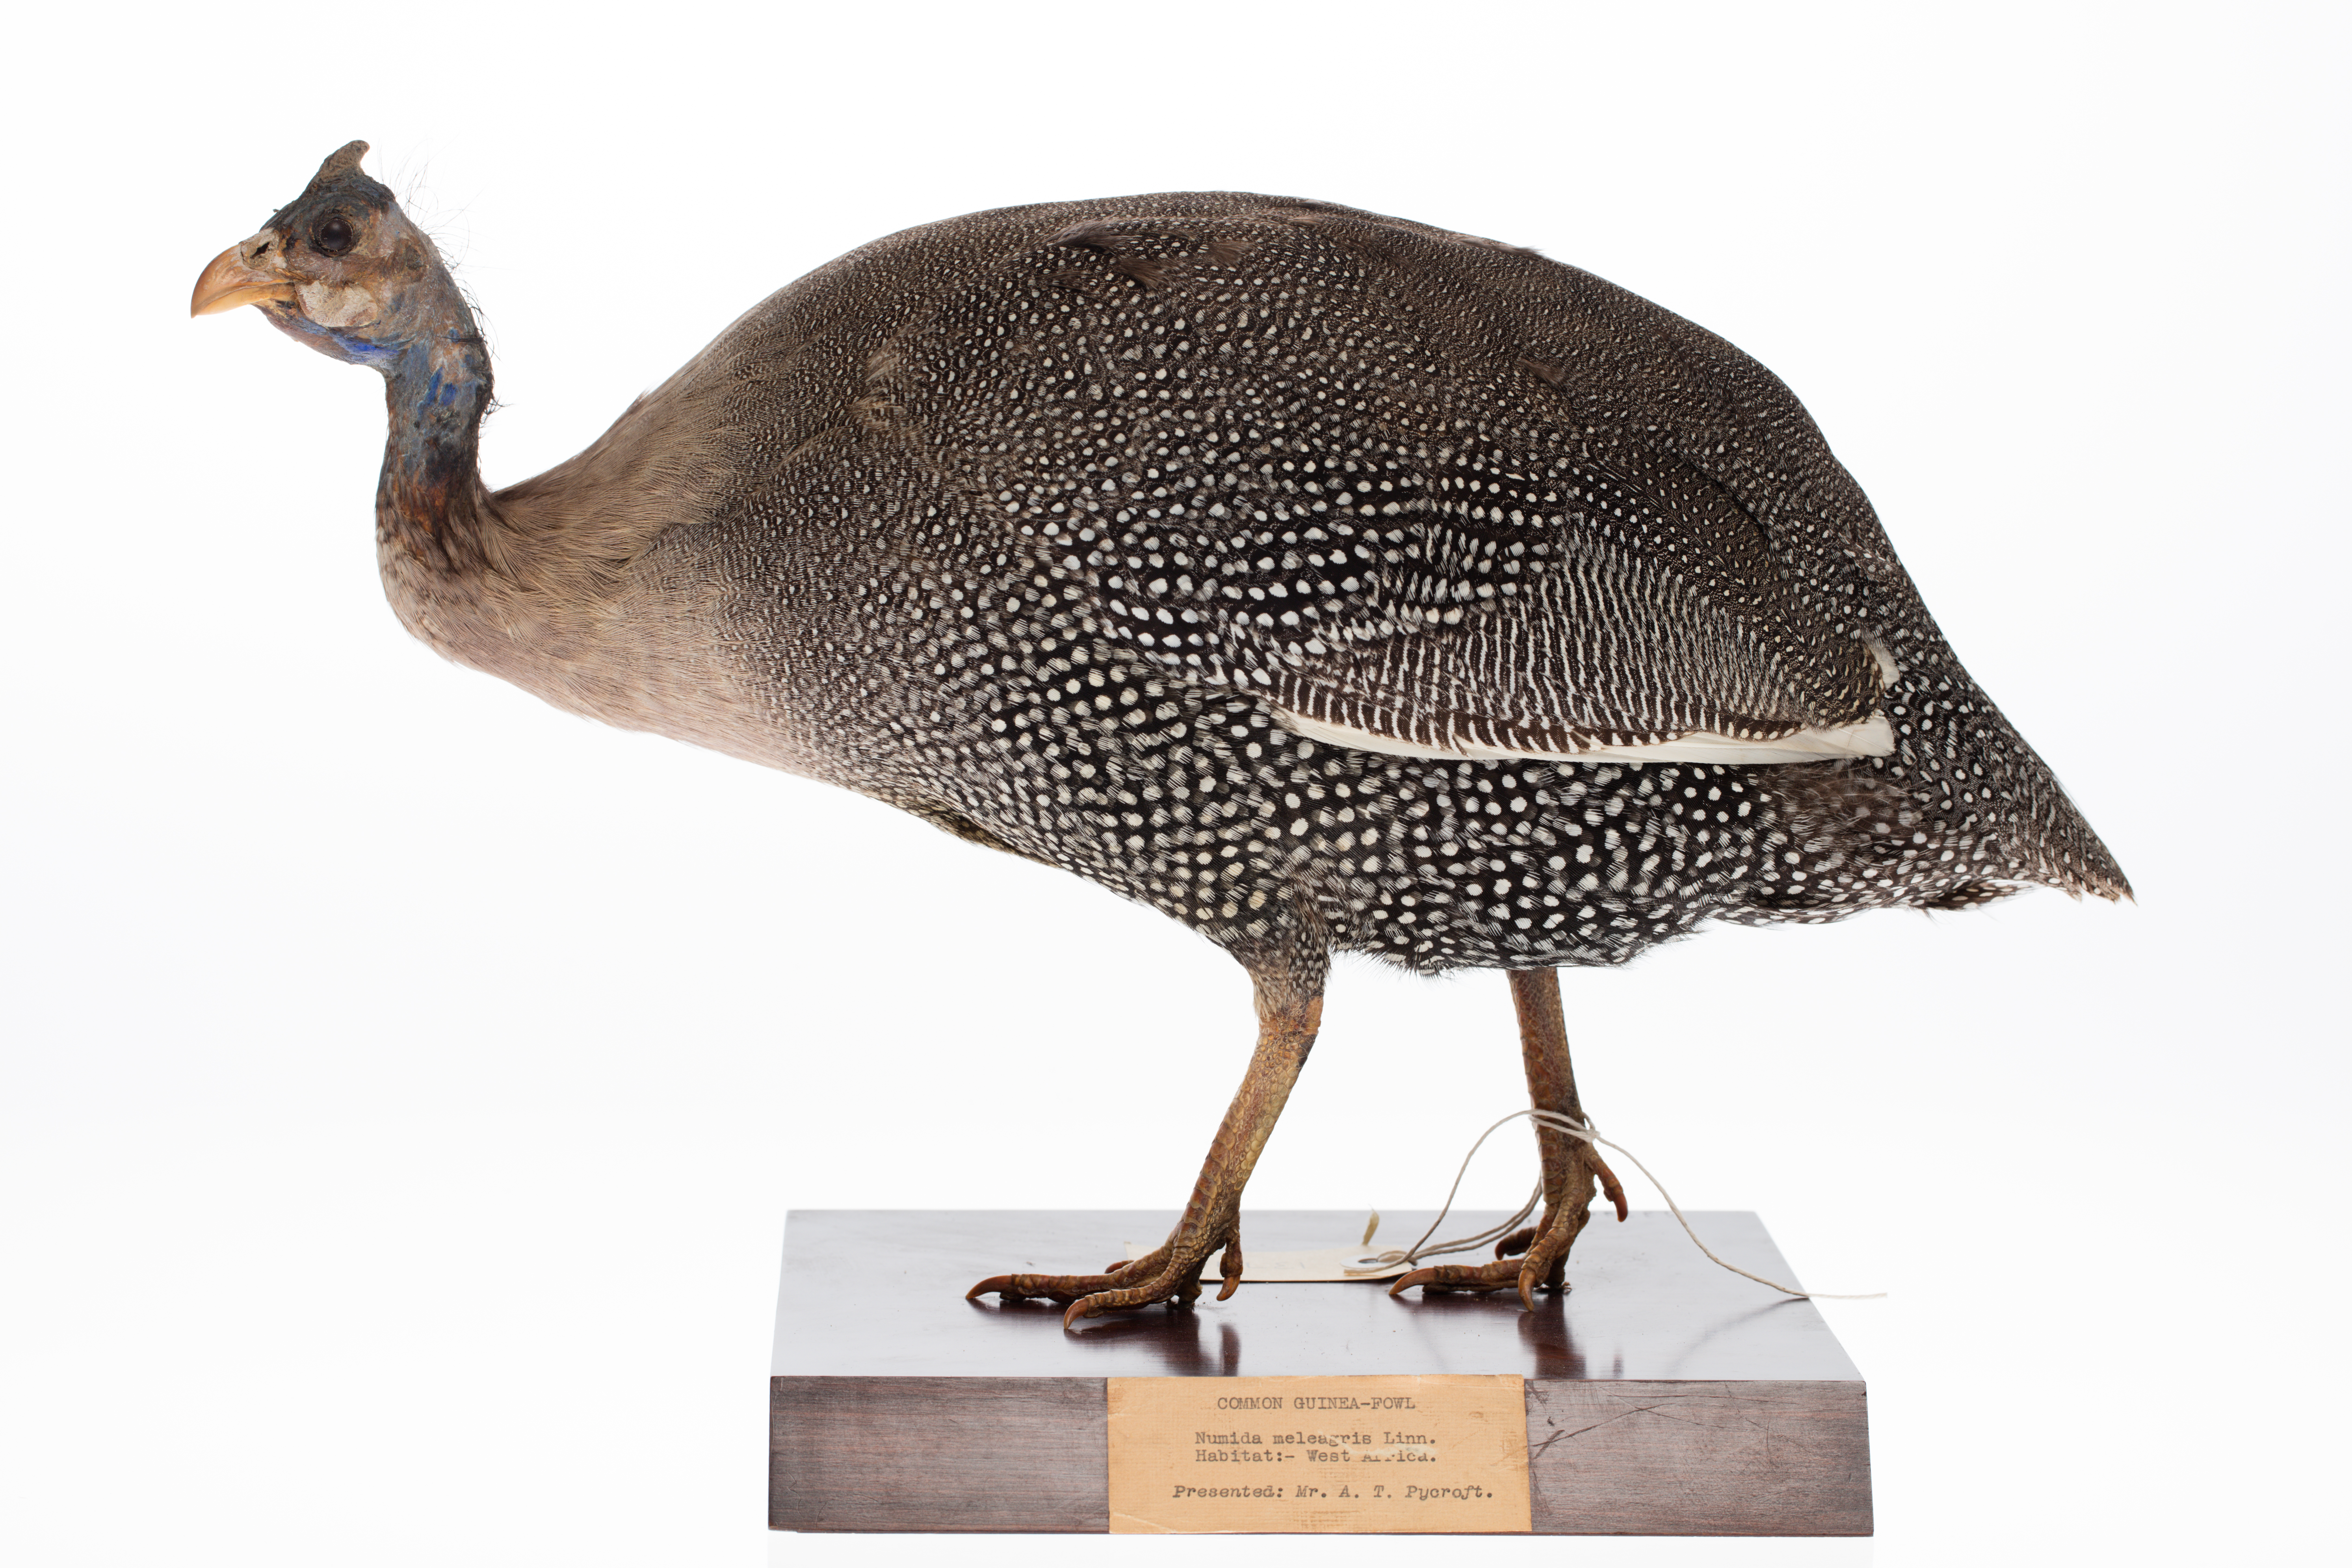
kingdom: Animalia
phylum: Chordata
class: Aves
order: Galliformes
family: Numididae
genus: Numida
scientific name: Numida meleagris
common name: Helmeted guineafowl
